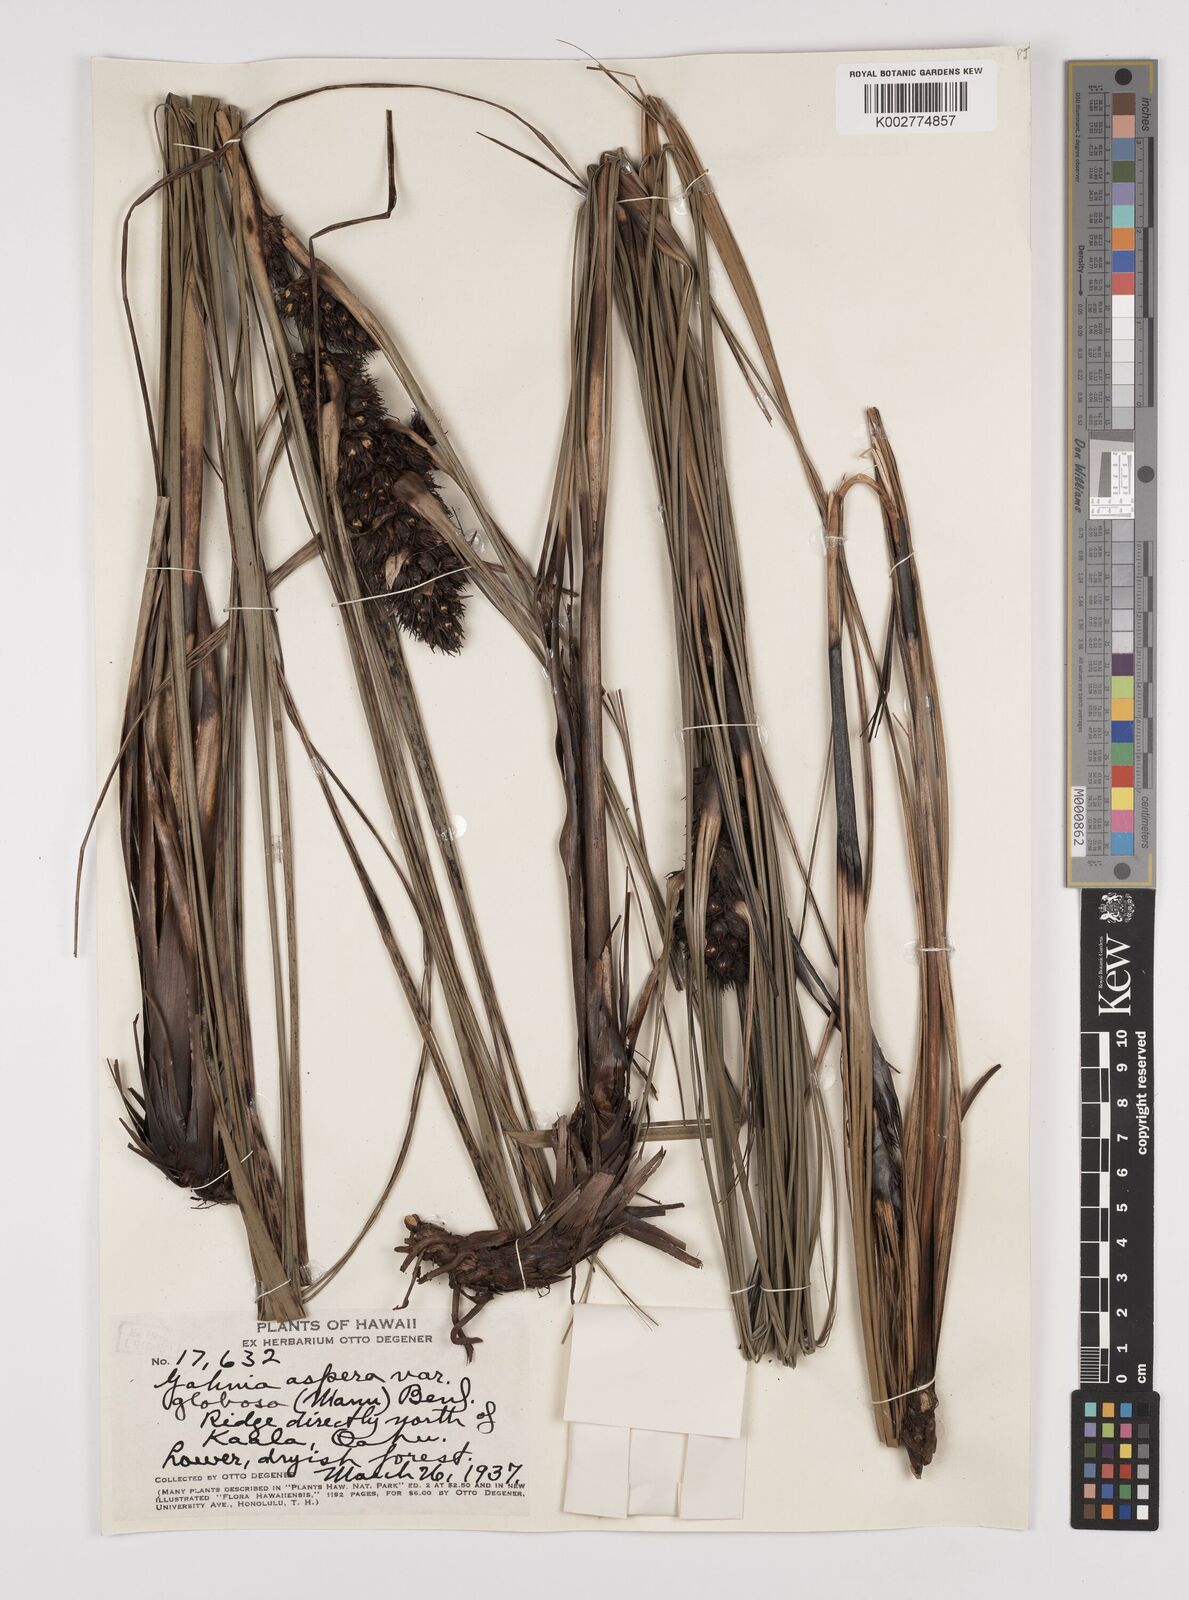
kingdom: Plantae
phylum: Tracheophyta
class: Liliopsida
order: Poales
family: Cyperaceae
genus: Gahnia
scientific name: Gahnia aspera
